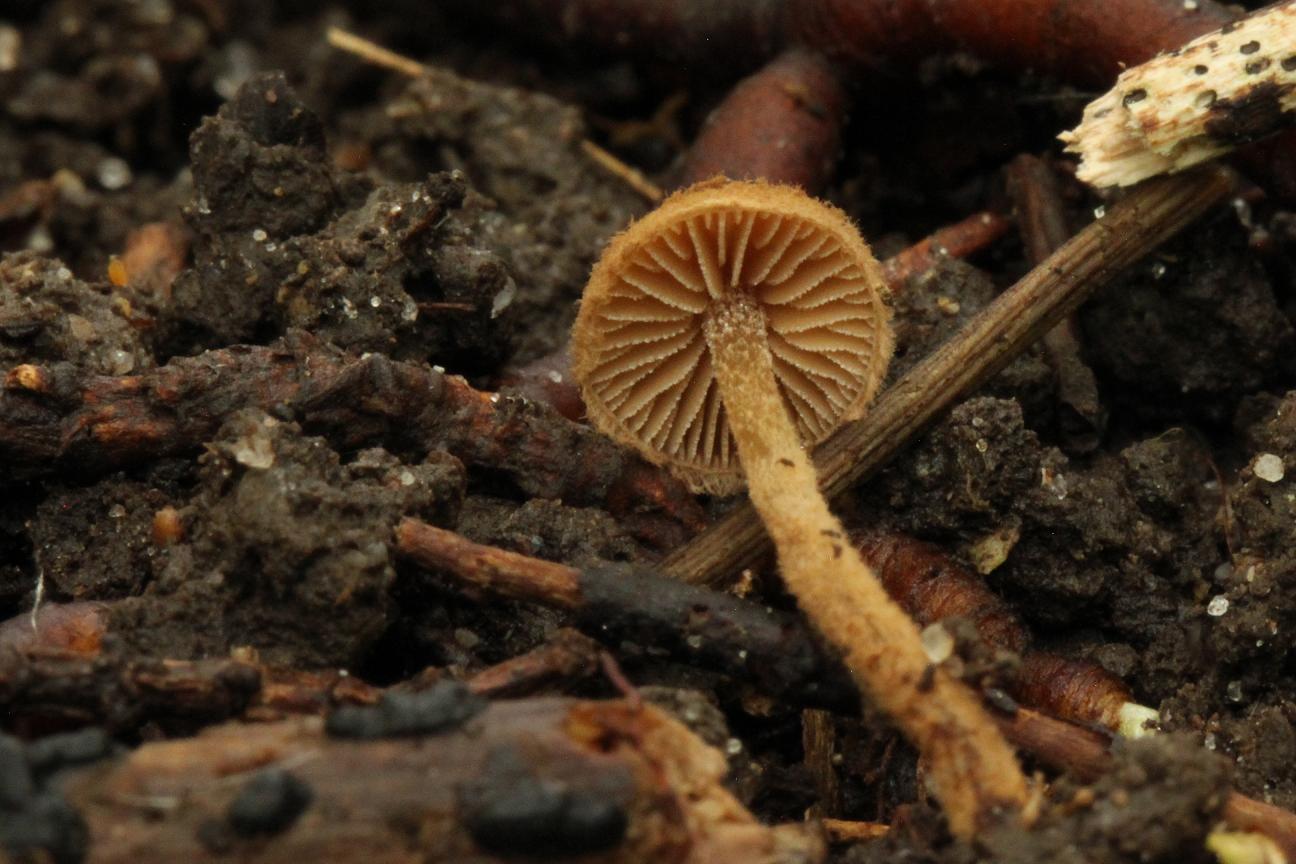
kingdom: Fungi
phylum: Basidiomycota
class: Agaricomycetes
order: Agaricales
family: Tubariaceae
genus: Flammulaster
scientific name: Flammulaster granulosus
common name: gulbrun grynskælhat
